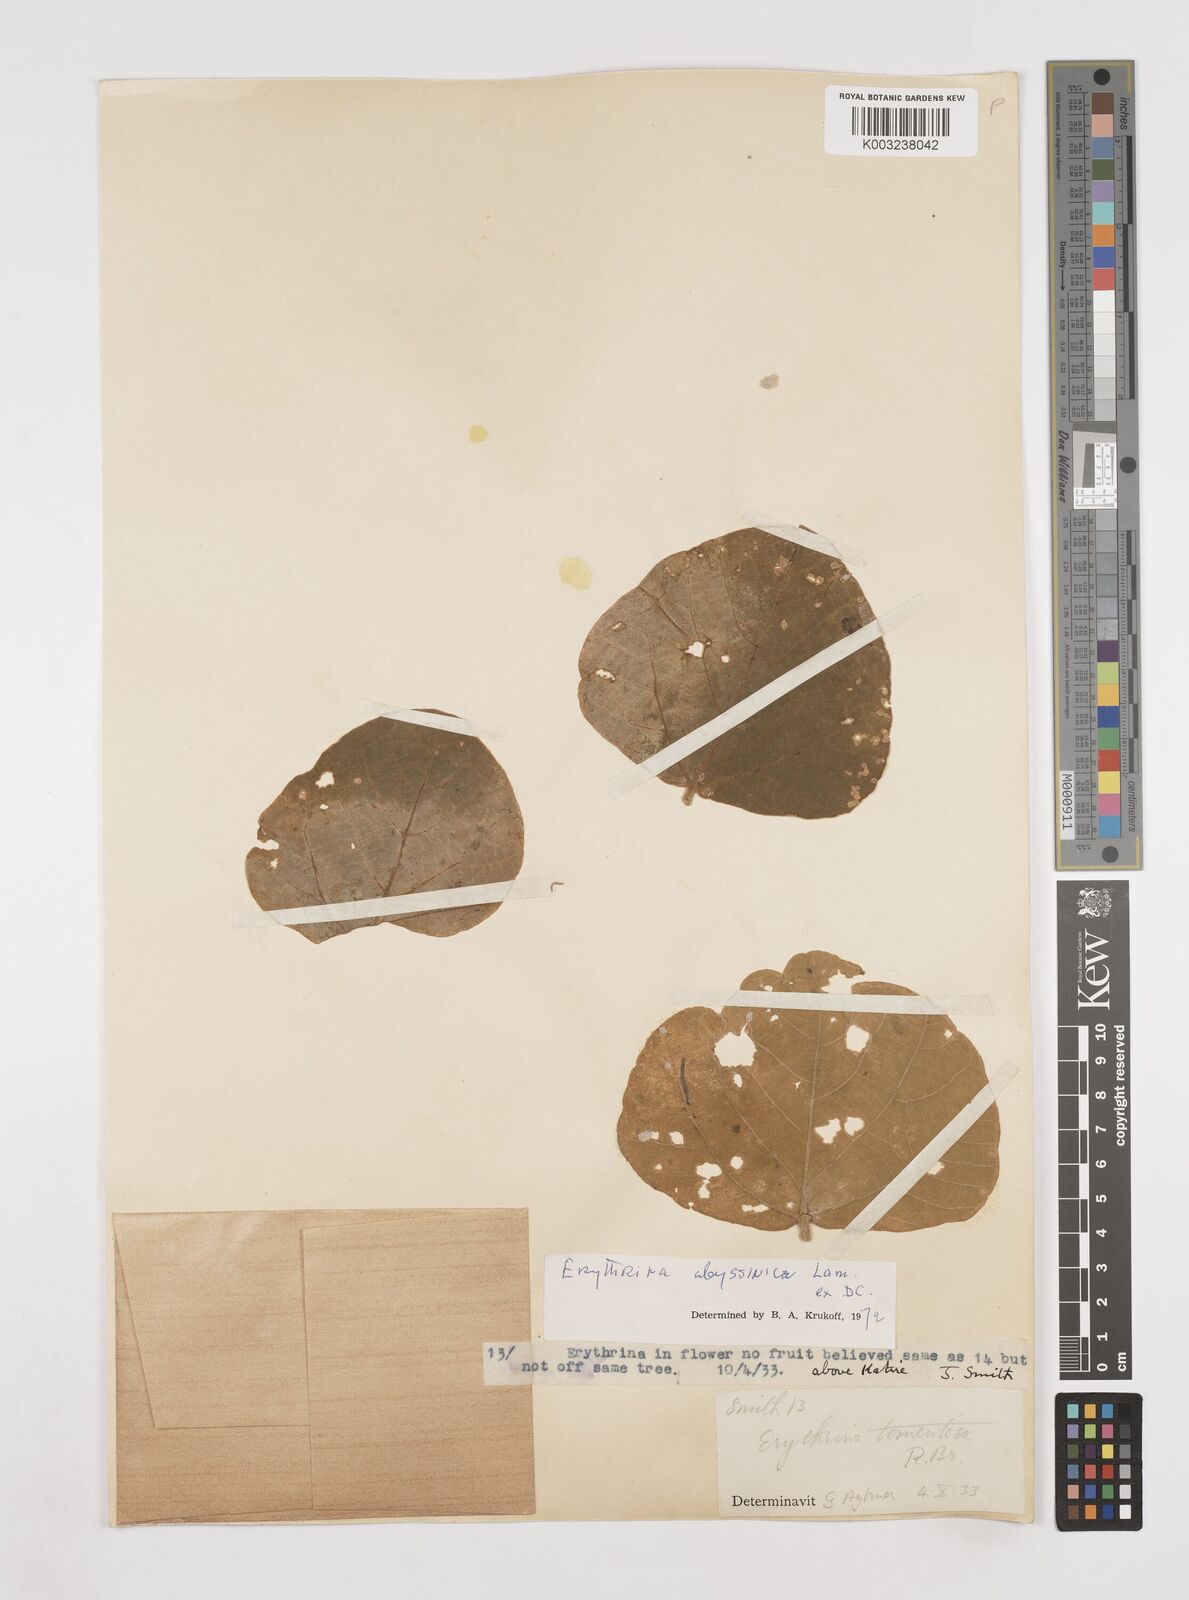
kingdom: Plantae
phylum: Tracheophyta
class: Magnoliopsida
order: Fabales
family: Fabaceae
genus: Erythrina
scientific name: Erythrina abyssinica
